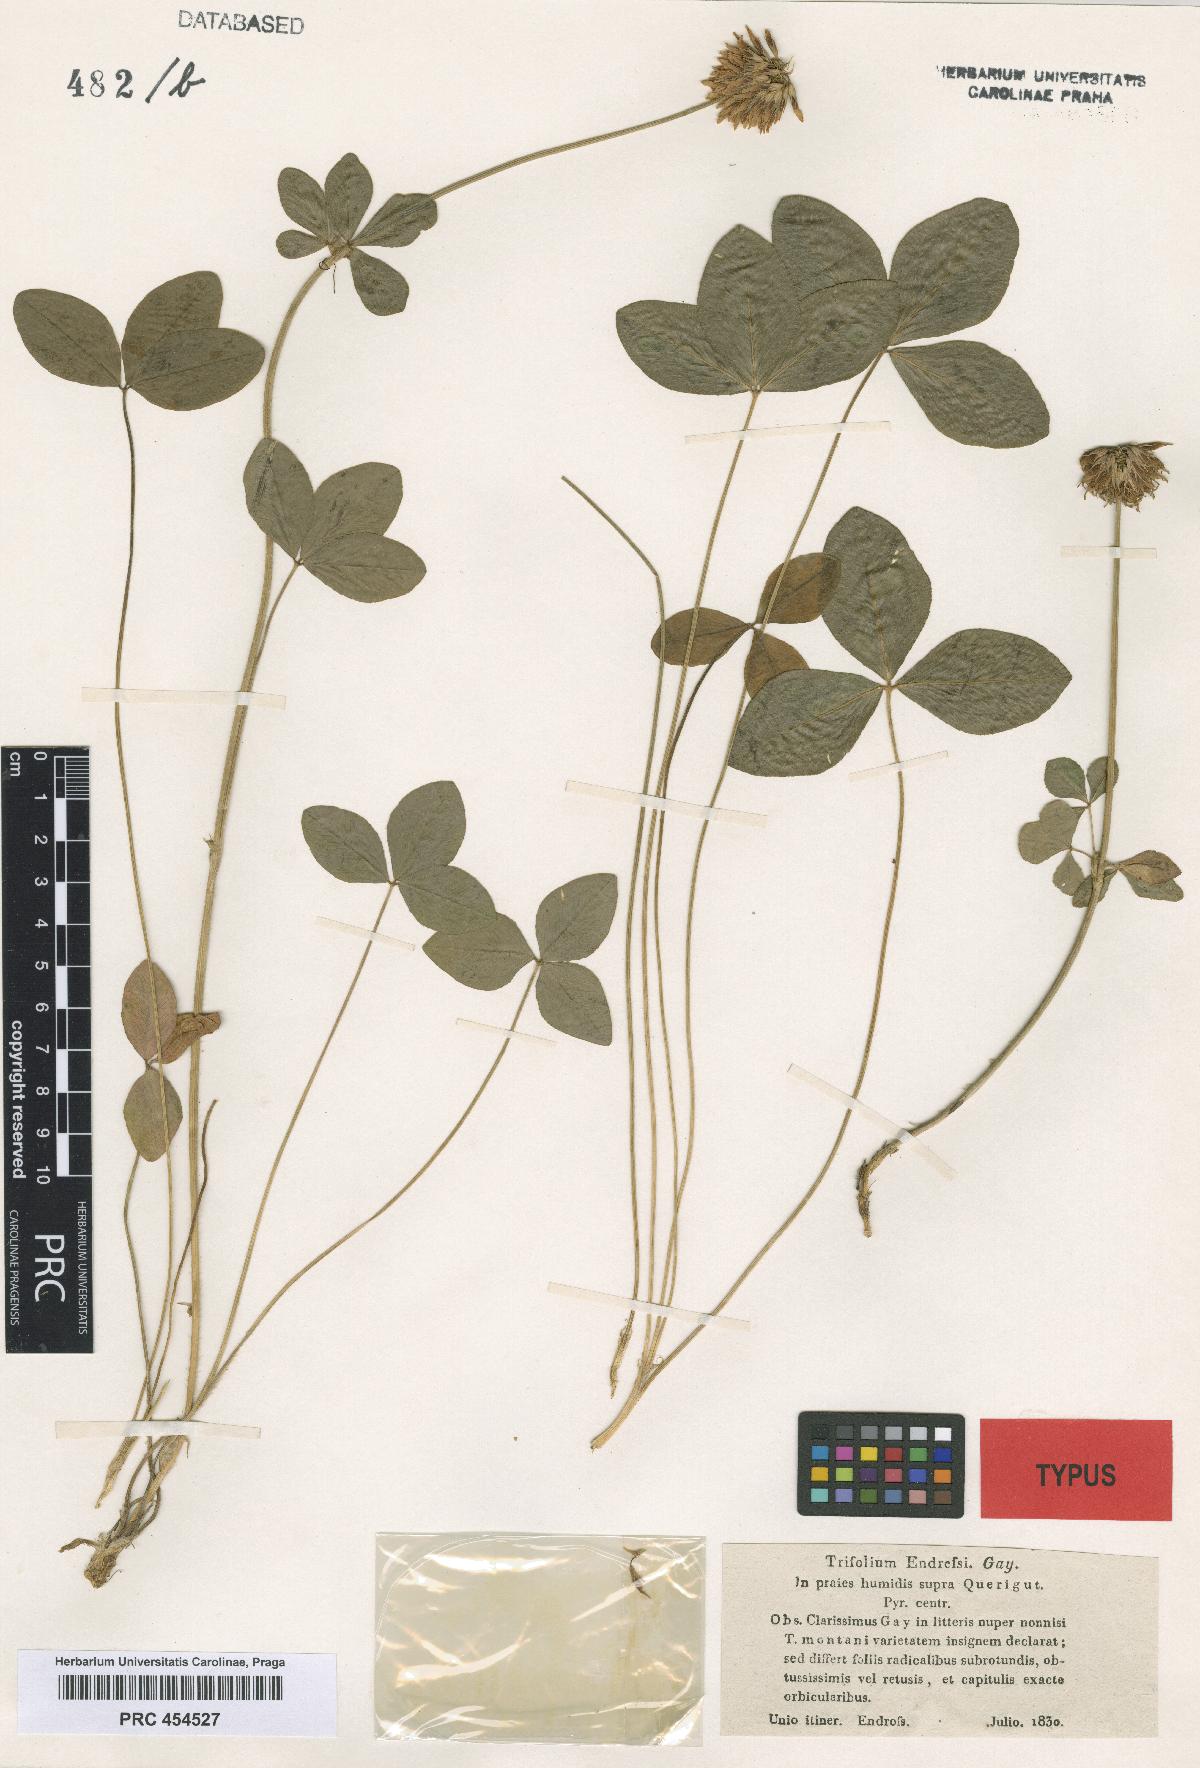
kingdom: Plantae
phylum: Tracheophyta
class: Magnoliopsida
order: Fabales
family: Fabaceae
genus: Trifolium
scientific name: Trifolium montanum
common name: Mountain clover
